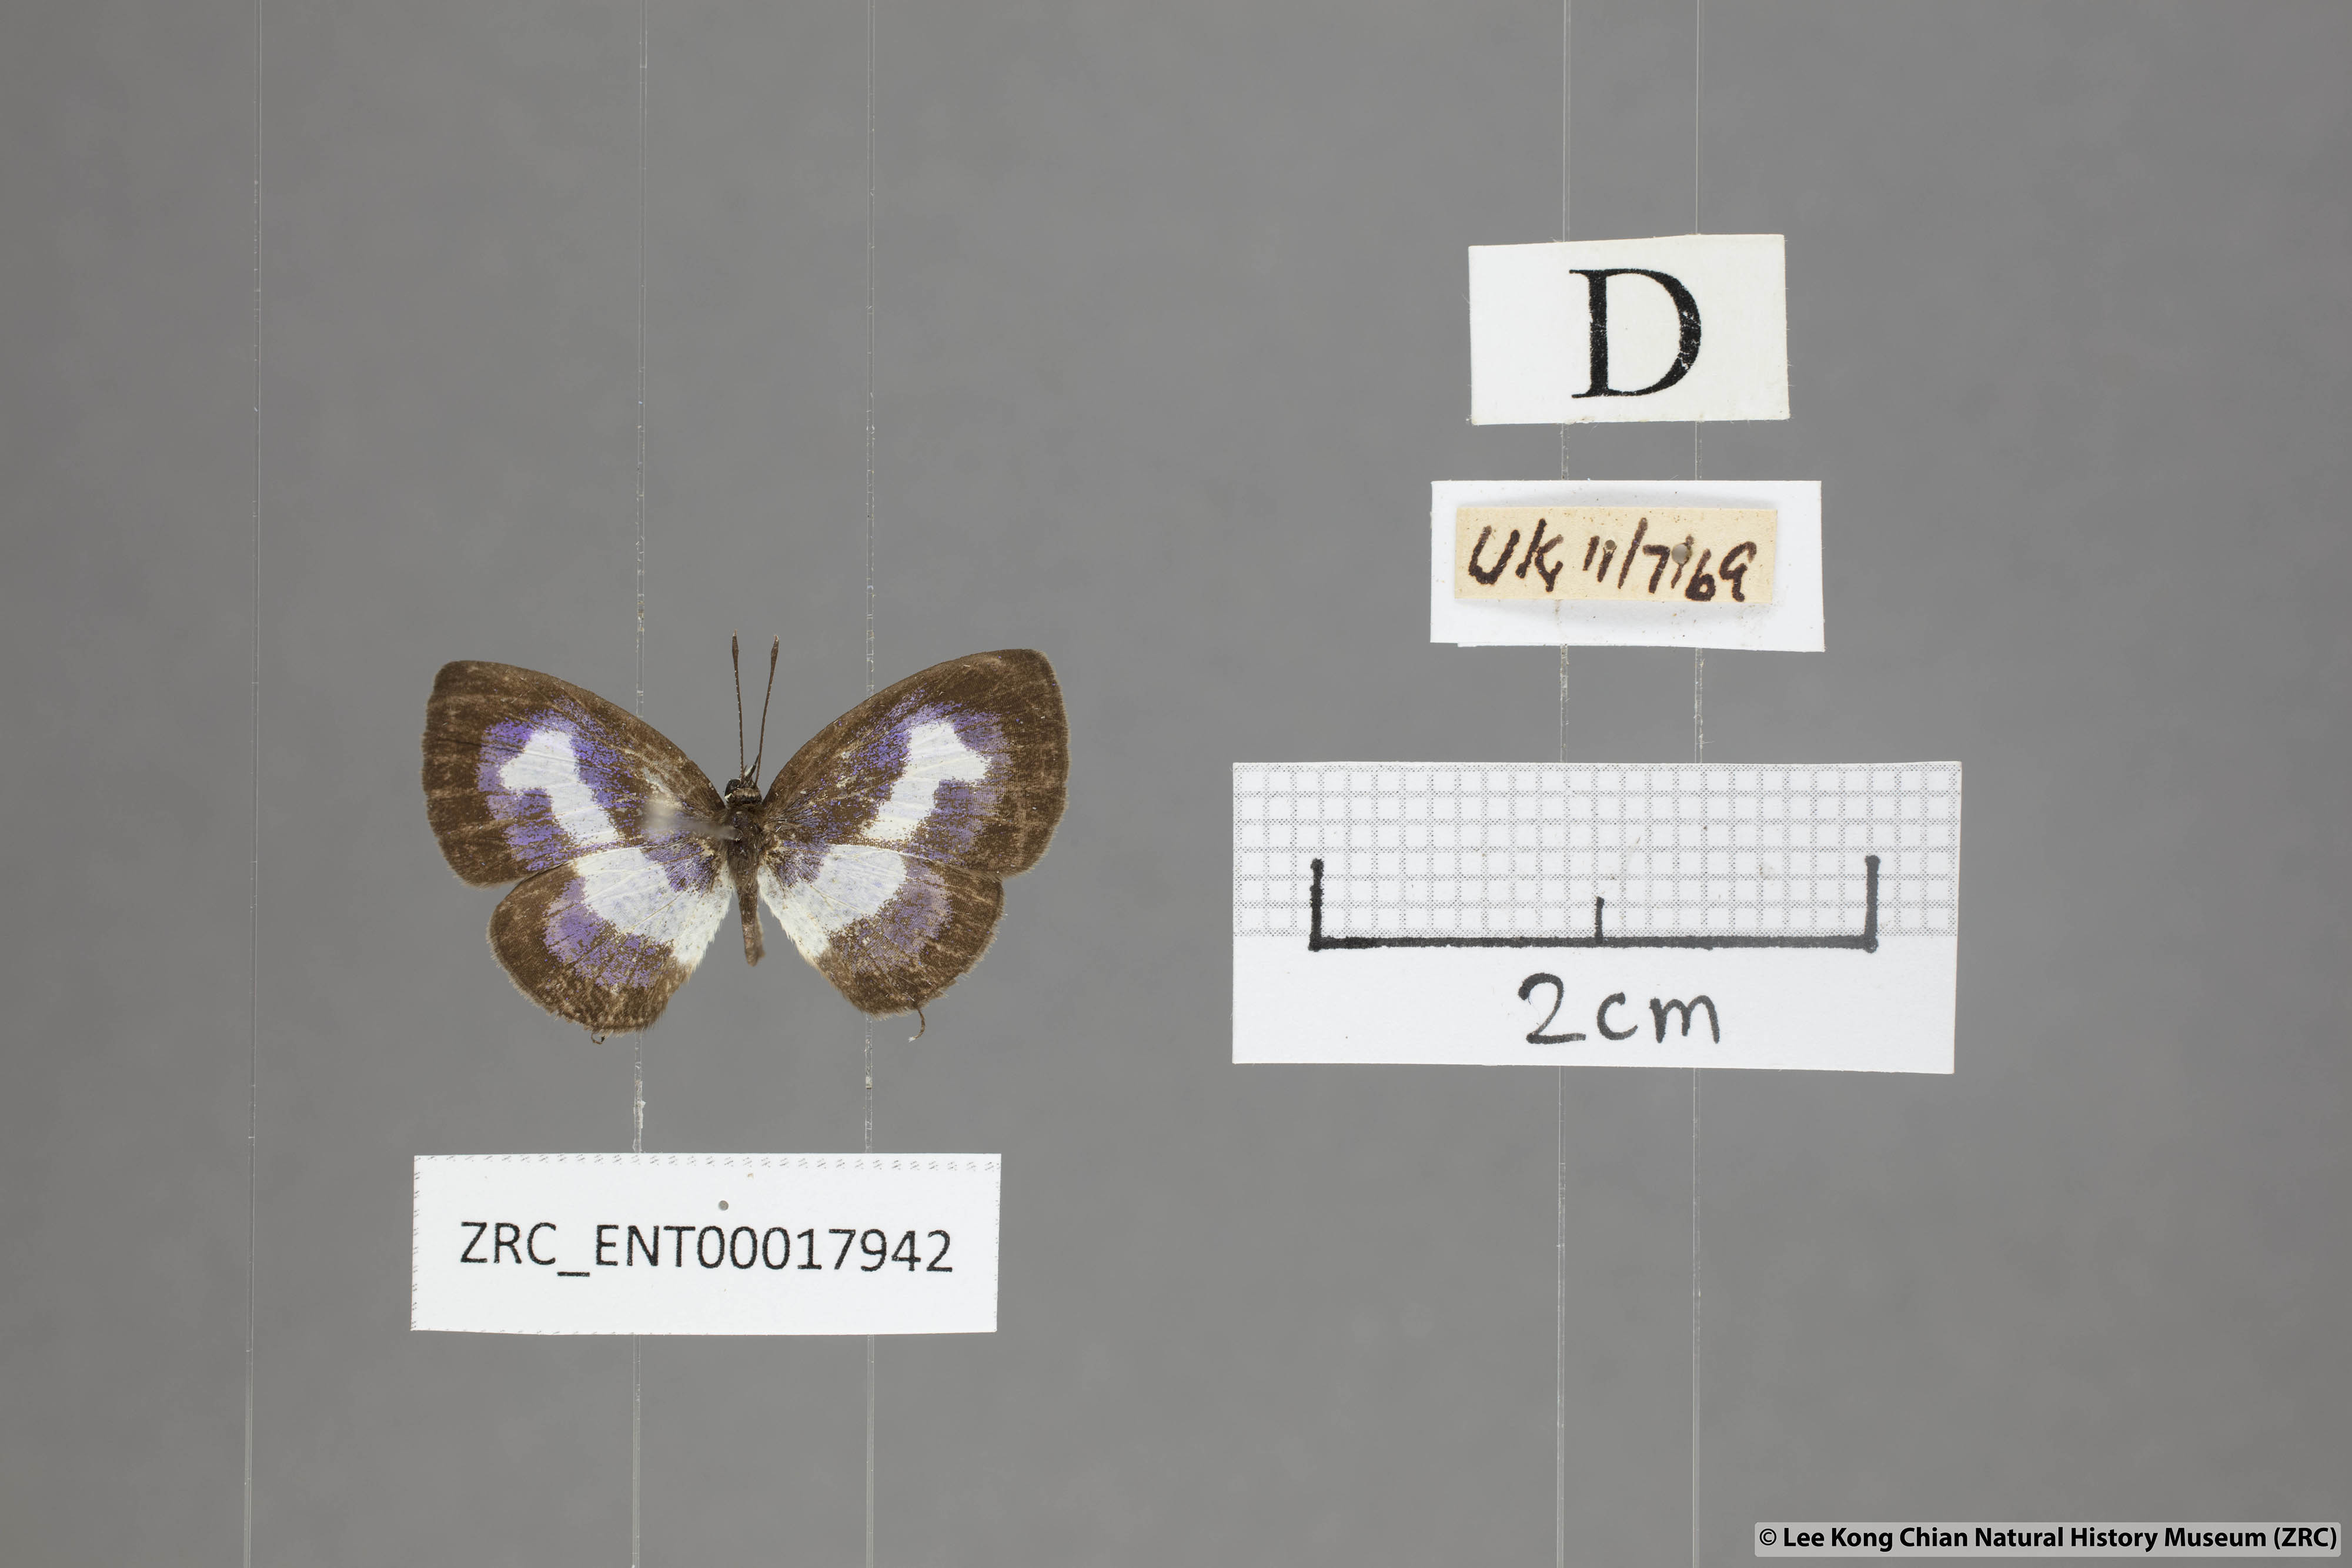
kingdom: Animalia
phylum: Arthropoda
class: Insecta
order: Lepidoptera
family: Lycaenidae
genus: Discolampa
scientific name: Discolampa ethion
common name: Banded blue pierrot
